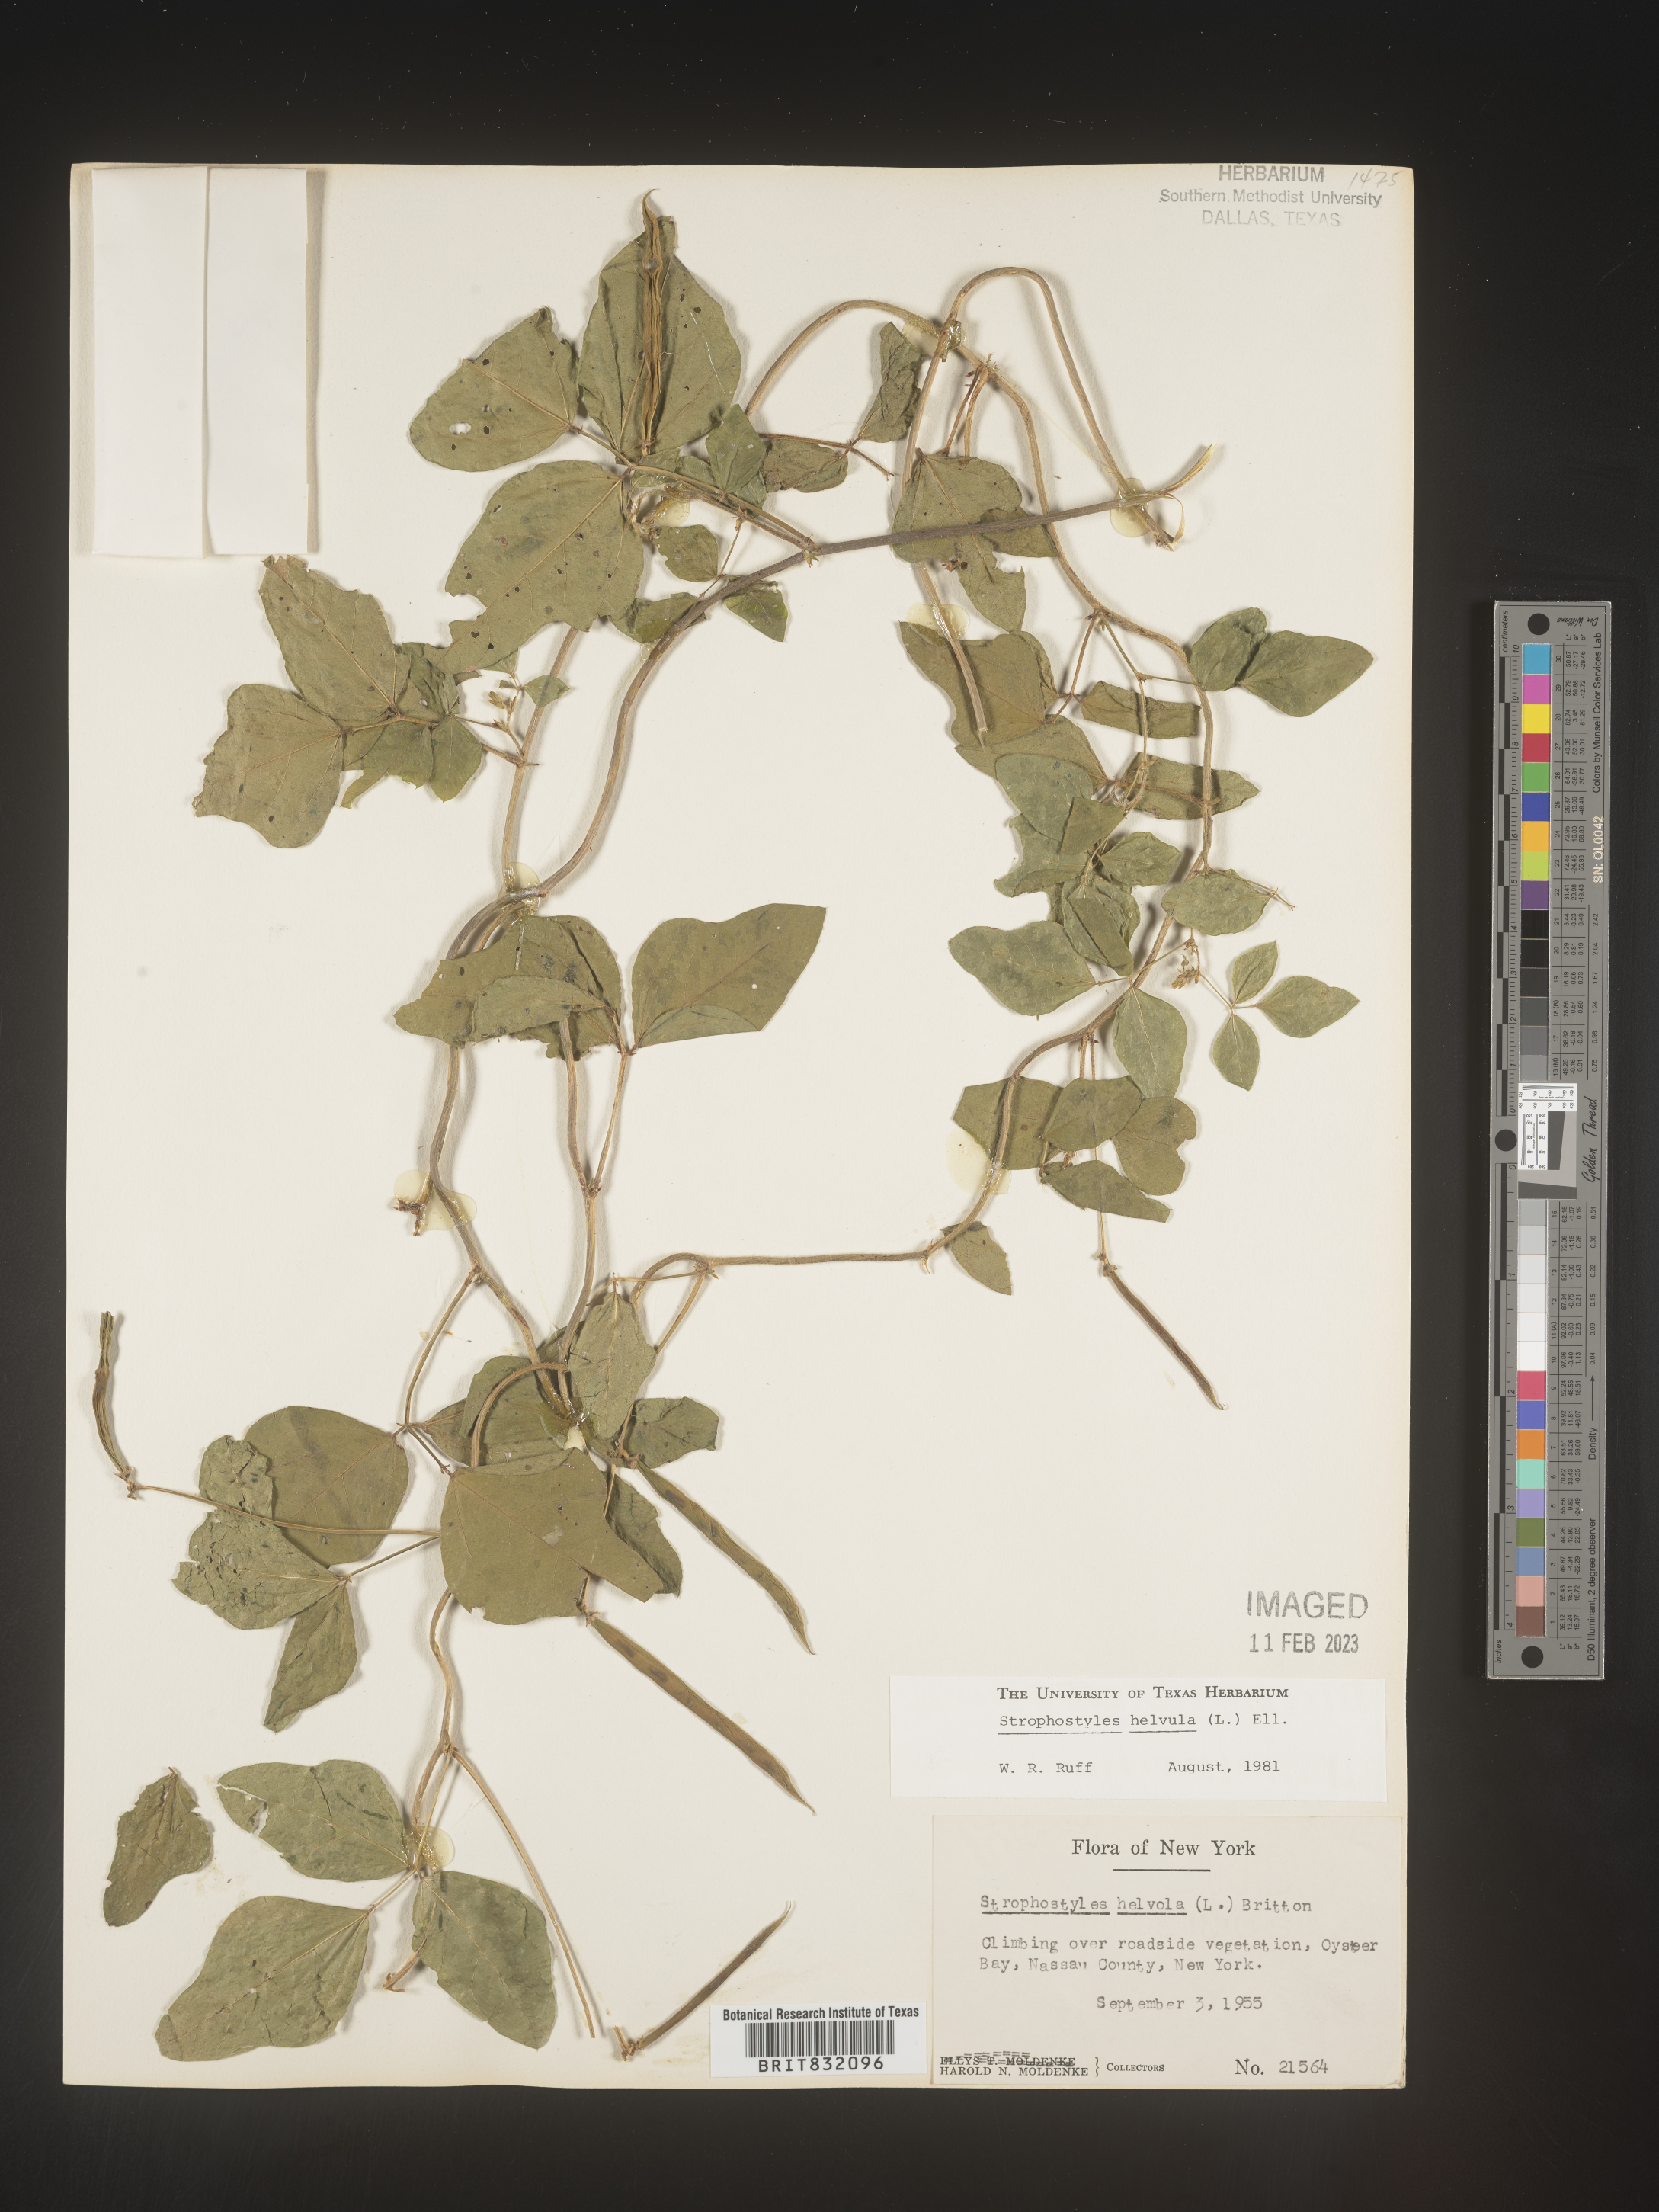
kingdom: Plantae
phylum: Tracheophyta
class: Magnoliopsida
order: Fabales
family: Fabaceae
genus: Strophostyles
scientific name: Strophostyles helvola
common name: Trailing wild bean
